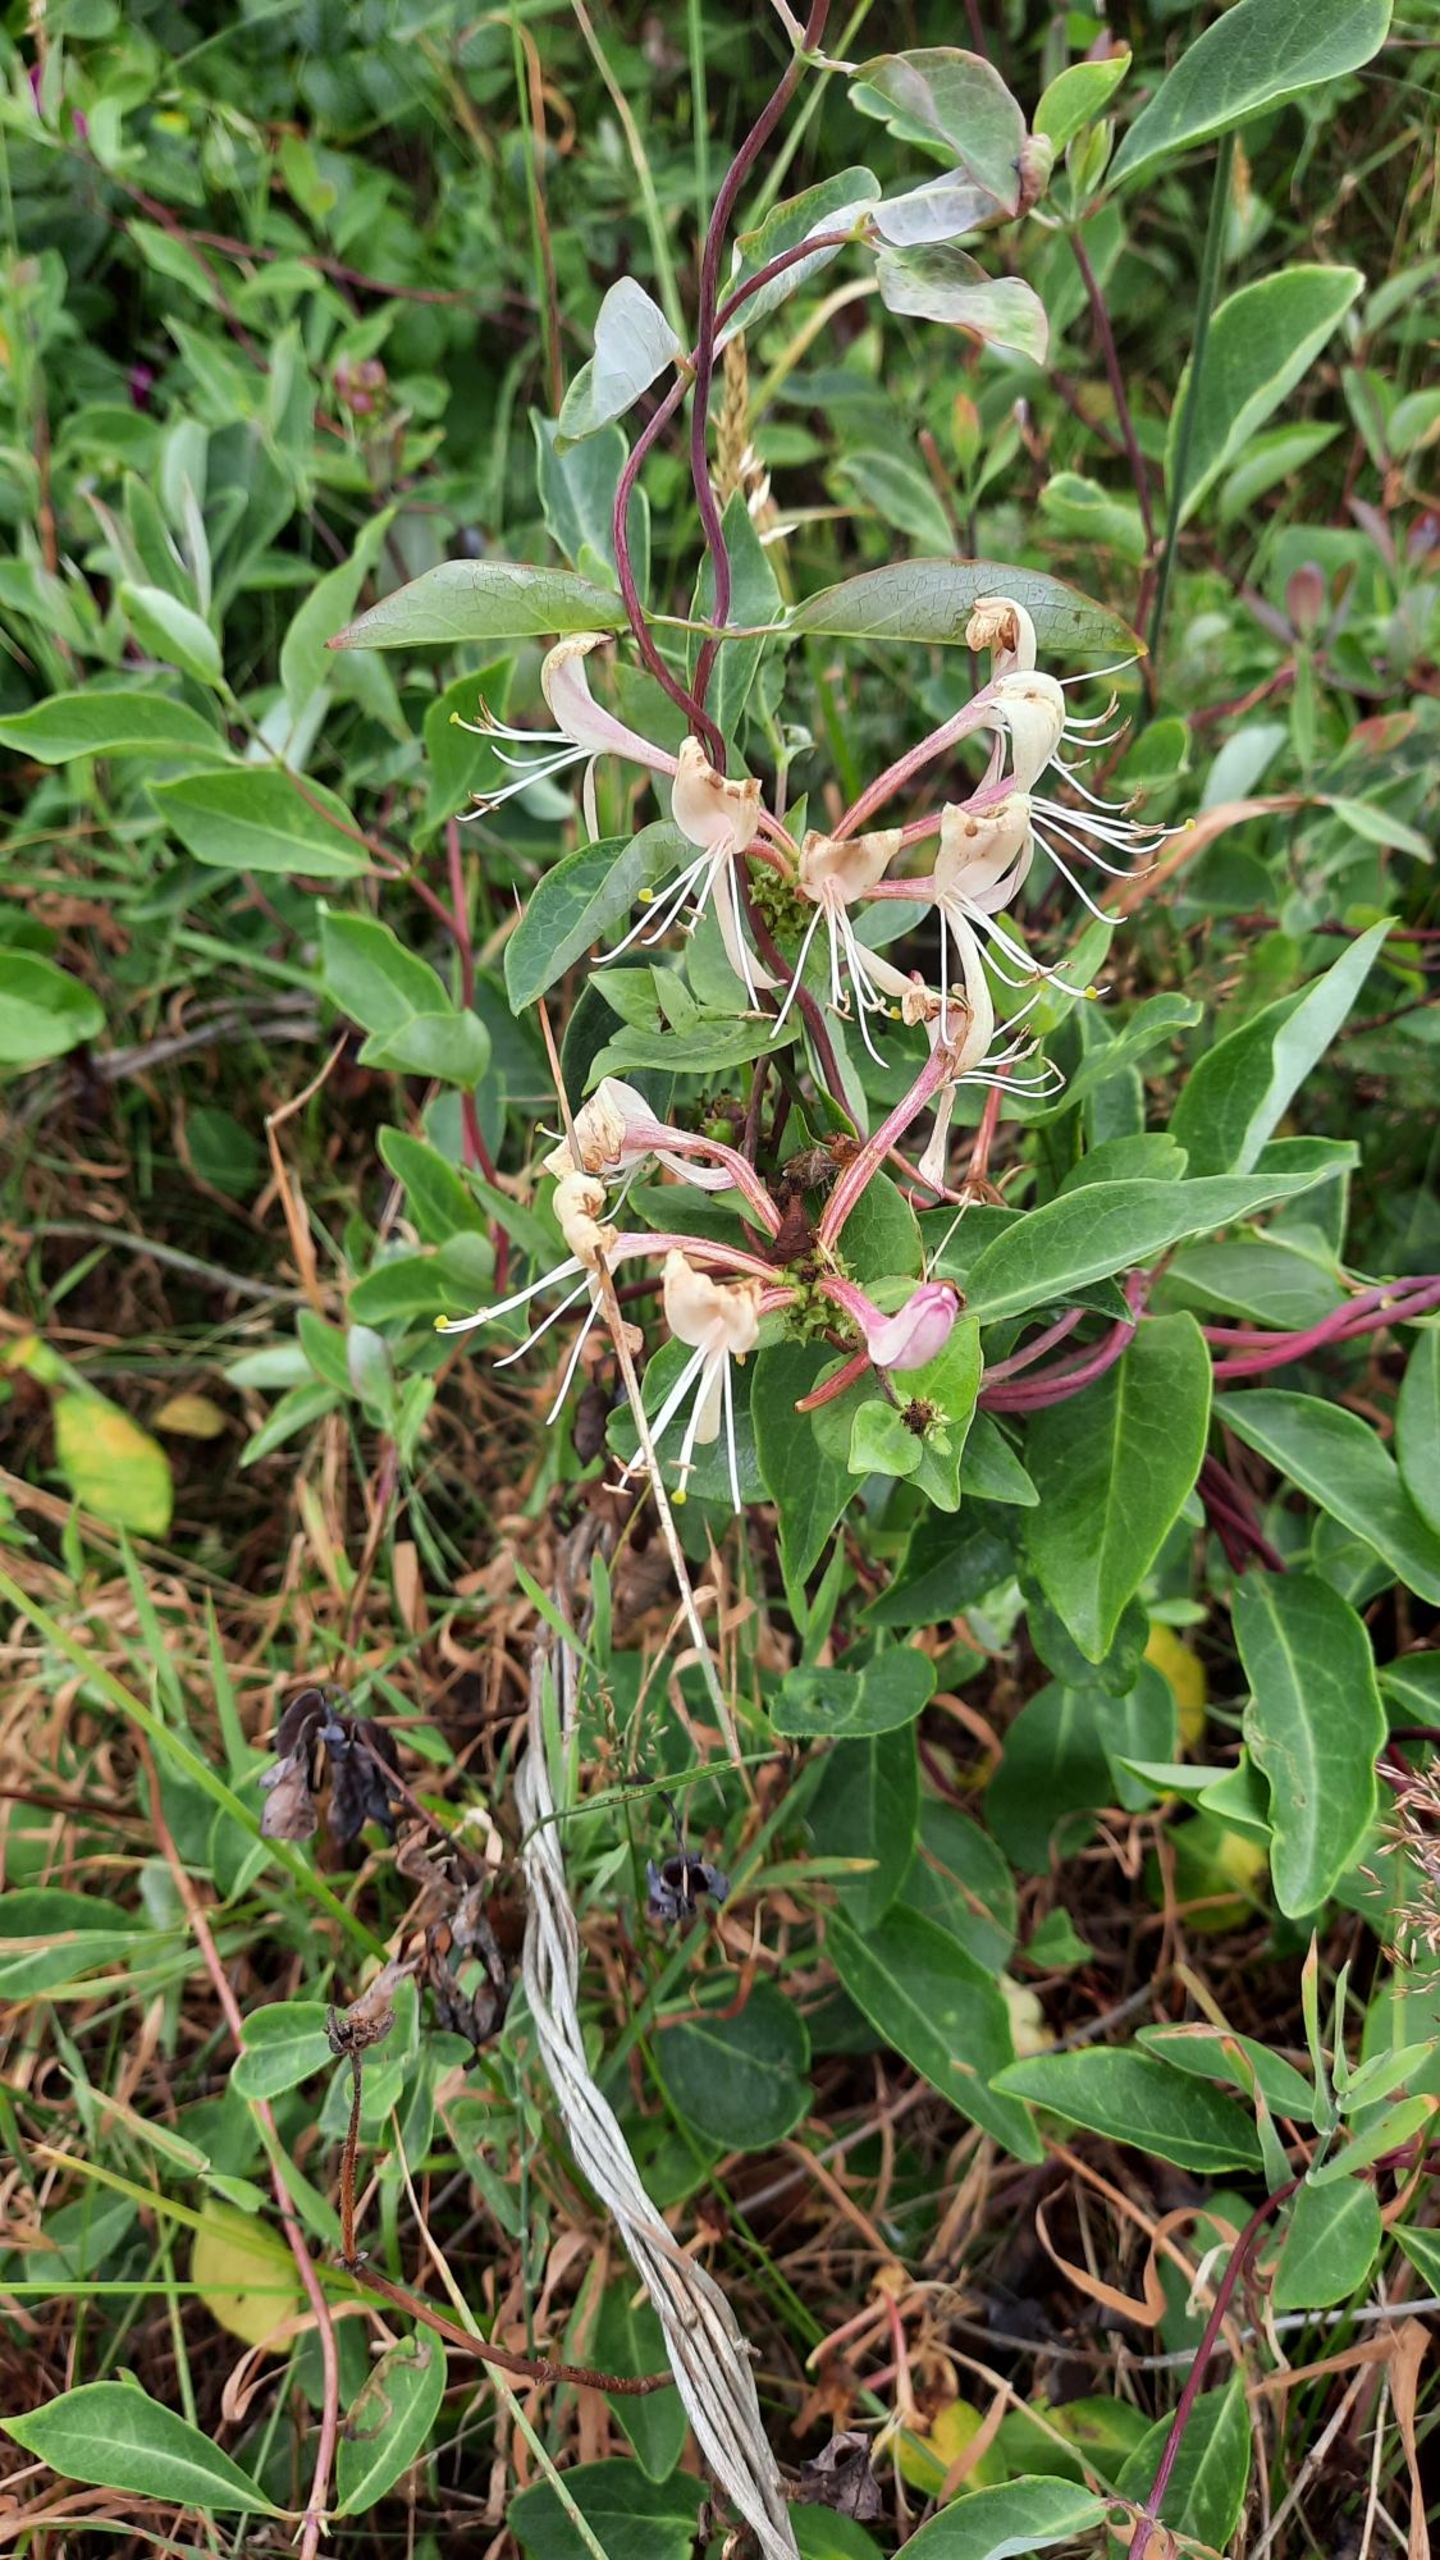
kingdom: Plantae
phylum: Tracheophyta
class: Magnoliopsida
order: Dipsacales
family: Caprifoliaceae
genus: Lonicera
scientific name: Lonicera periclymenum
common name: Almindelig gedeblad
